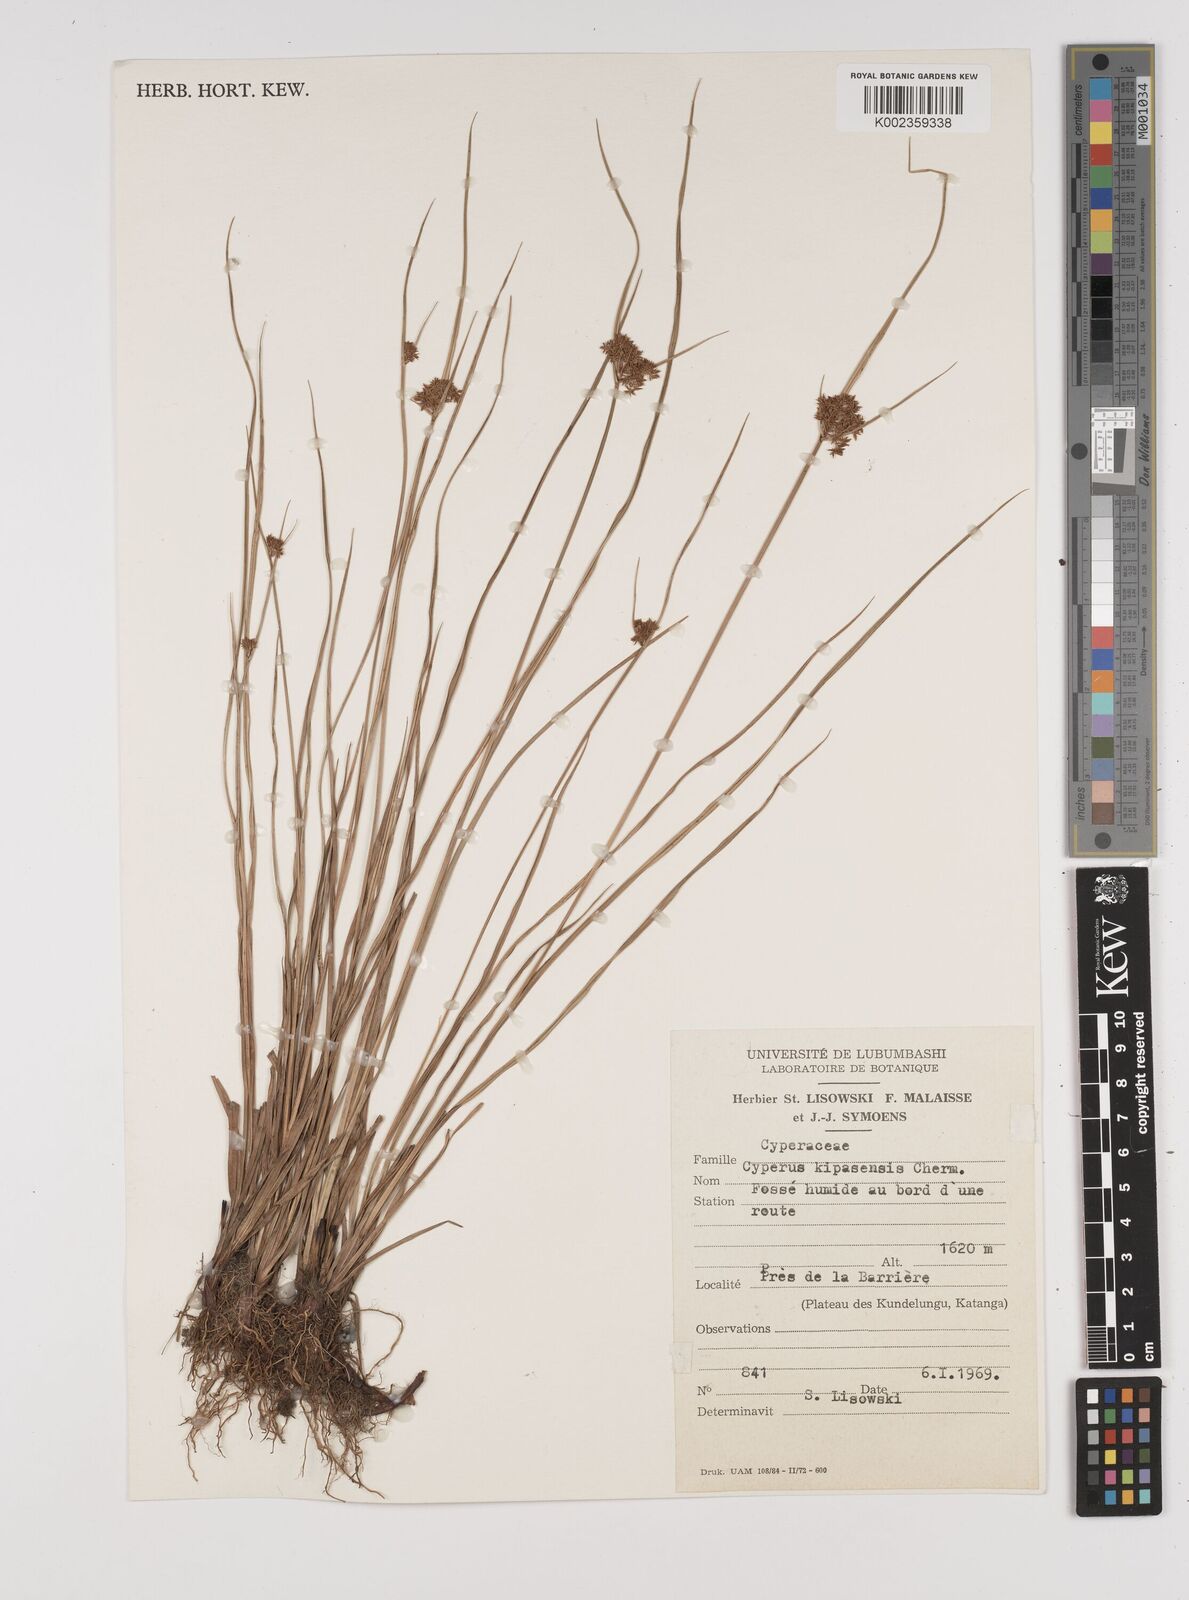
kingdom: Plantae
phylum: Tracheophyta
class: Liliopsida
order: Poales
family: Cyperaceae
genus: Cyperus
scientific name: Cyperus kipasensis
